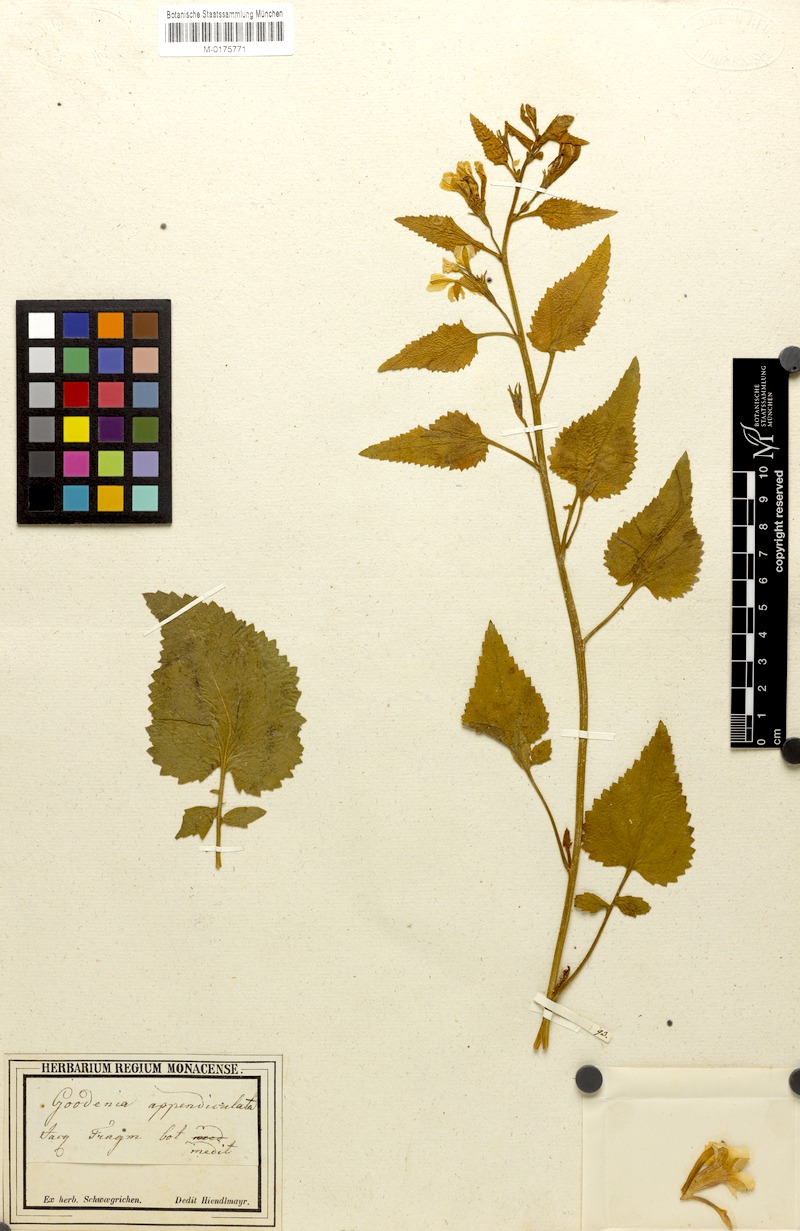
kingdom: Plantae
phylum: Tracheophyta
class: Magnoliopsida
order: Asterales
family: Goodeniaceae
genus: Goodenia
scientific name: Goodenia grandiflora
